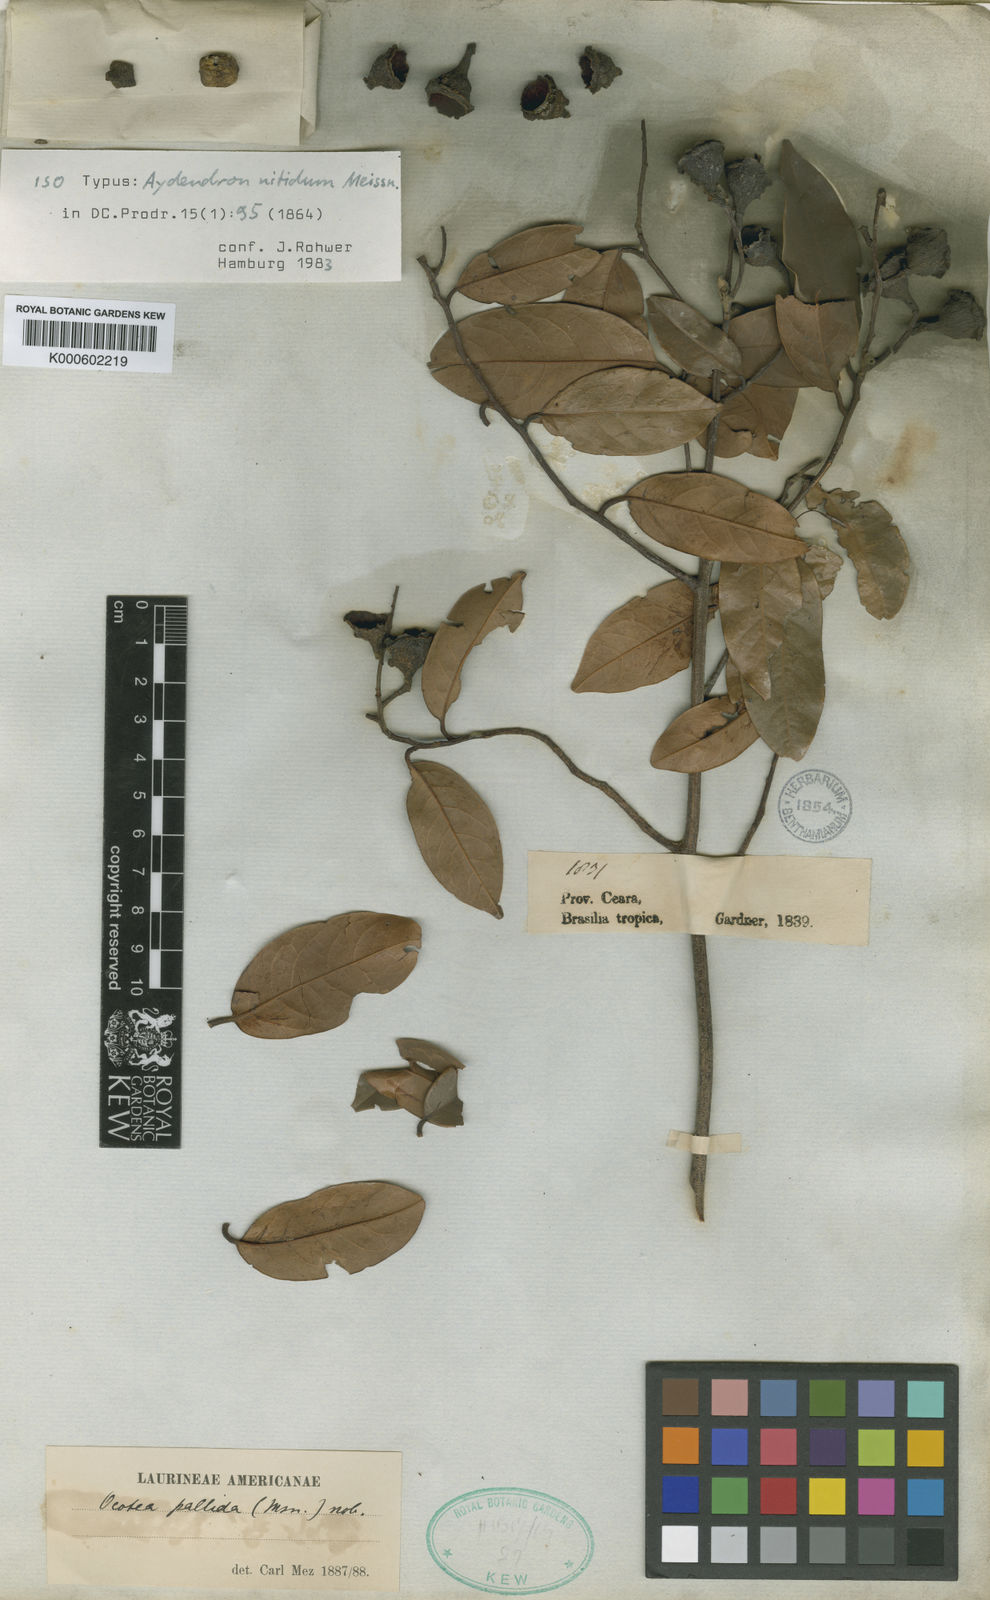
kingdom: Plantae
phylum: Tracheophyta
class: Magnoliopsida
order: Laurales
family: Lauraceae
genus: Ocotea
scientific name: Ocotea nitida
